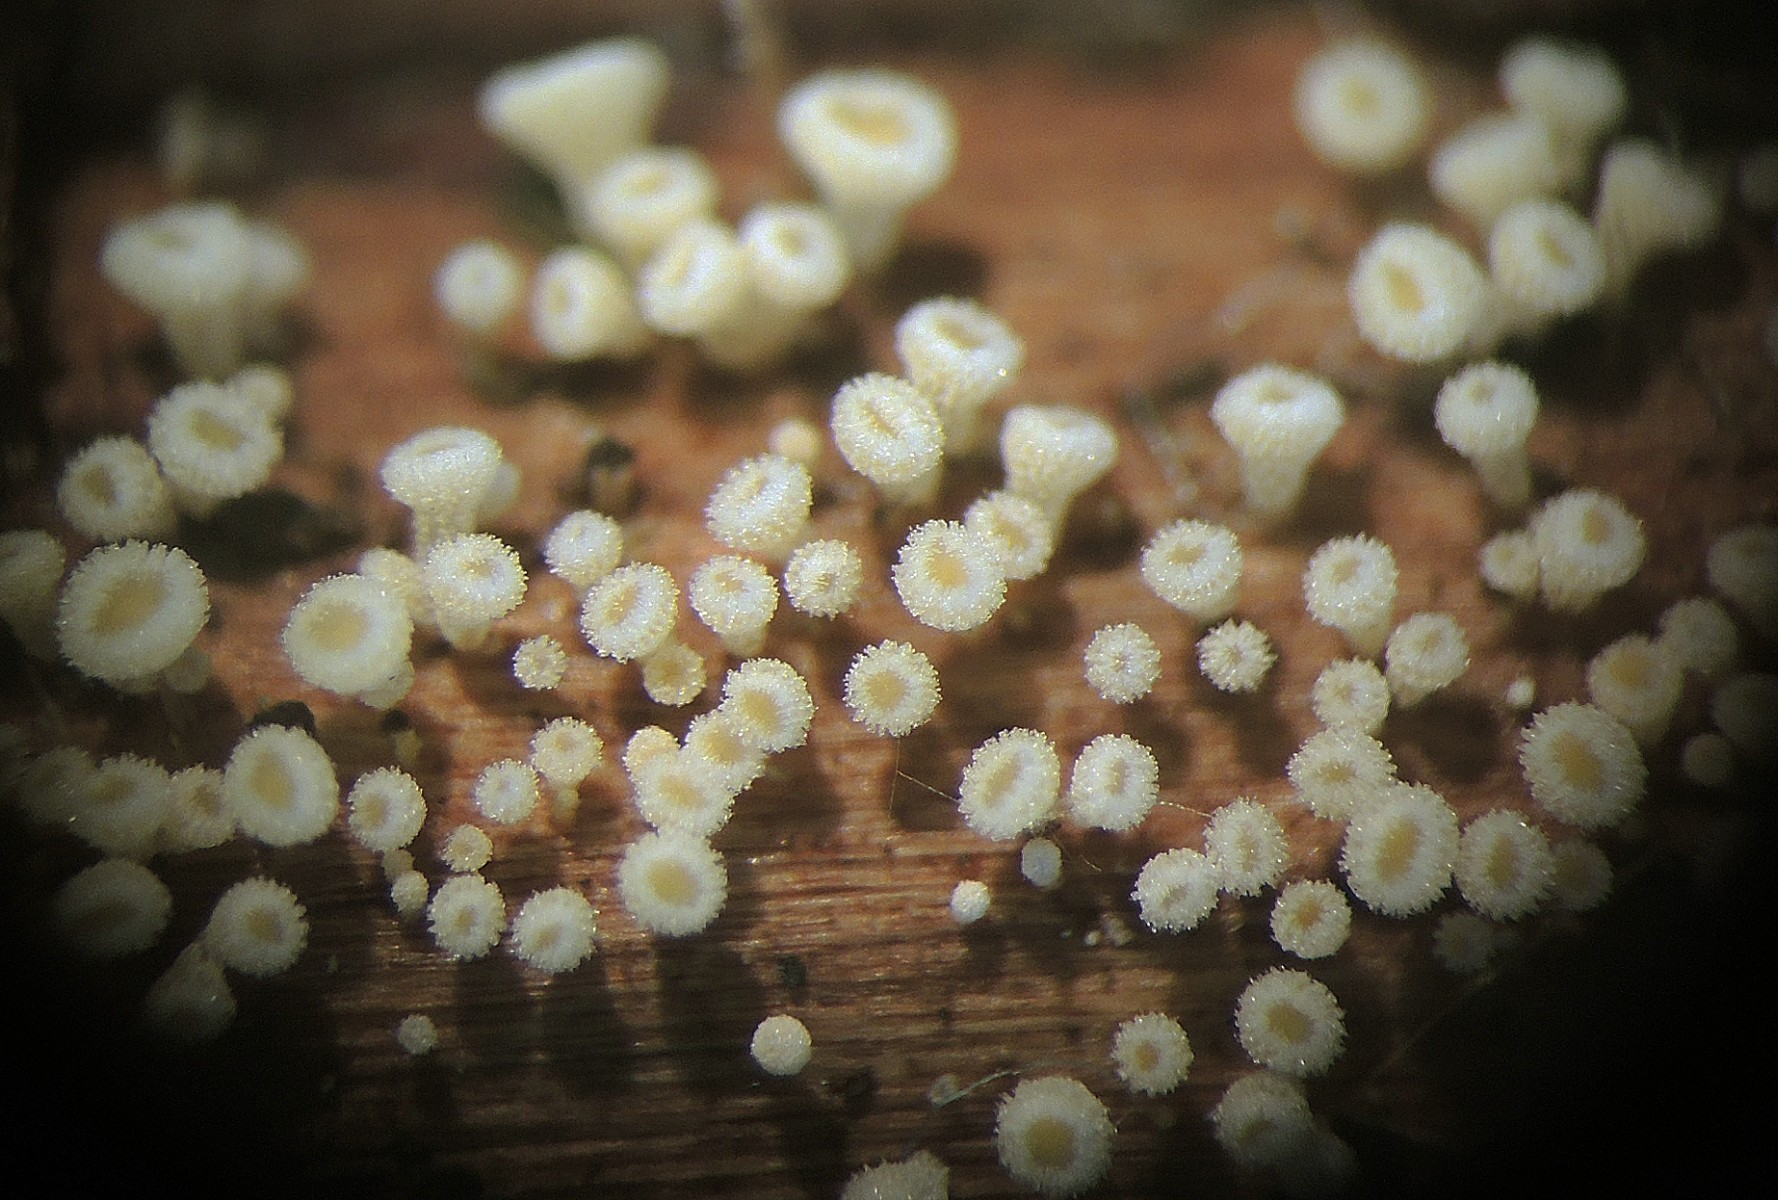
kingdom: Fungi
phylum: Ascomycota
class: Leotiomycetes
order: Helotiales
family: Lachnaceae
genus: Capitotricha
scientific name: Capitotricha rubi
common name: orangegul frynseskive
